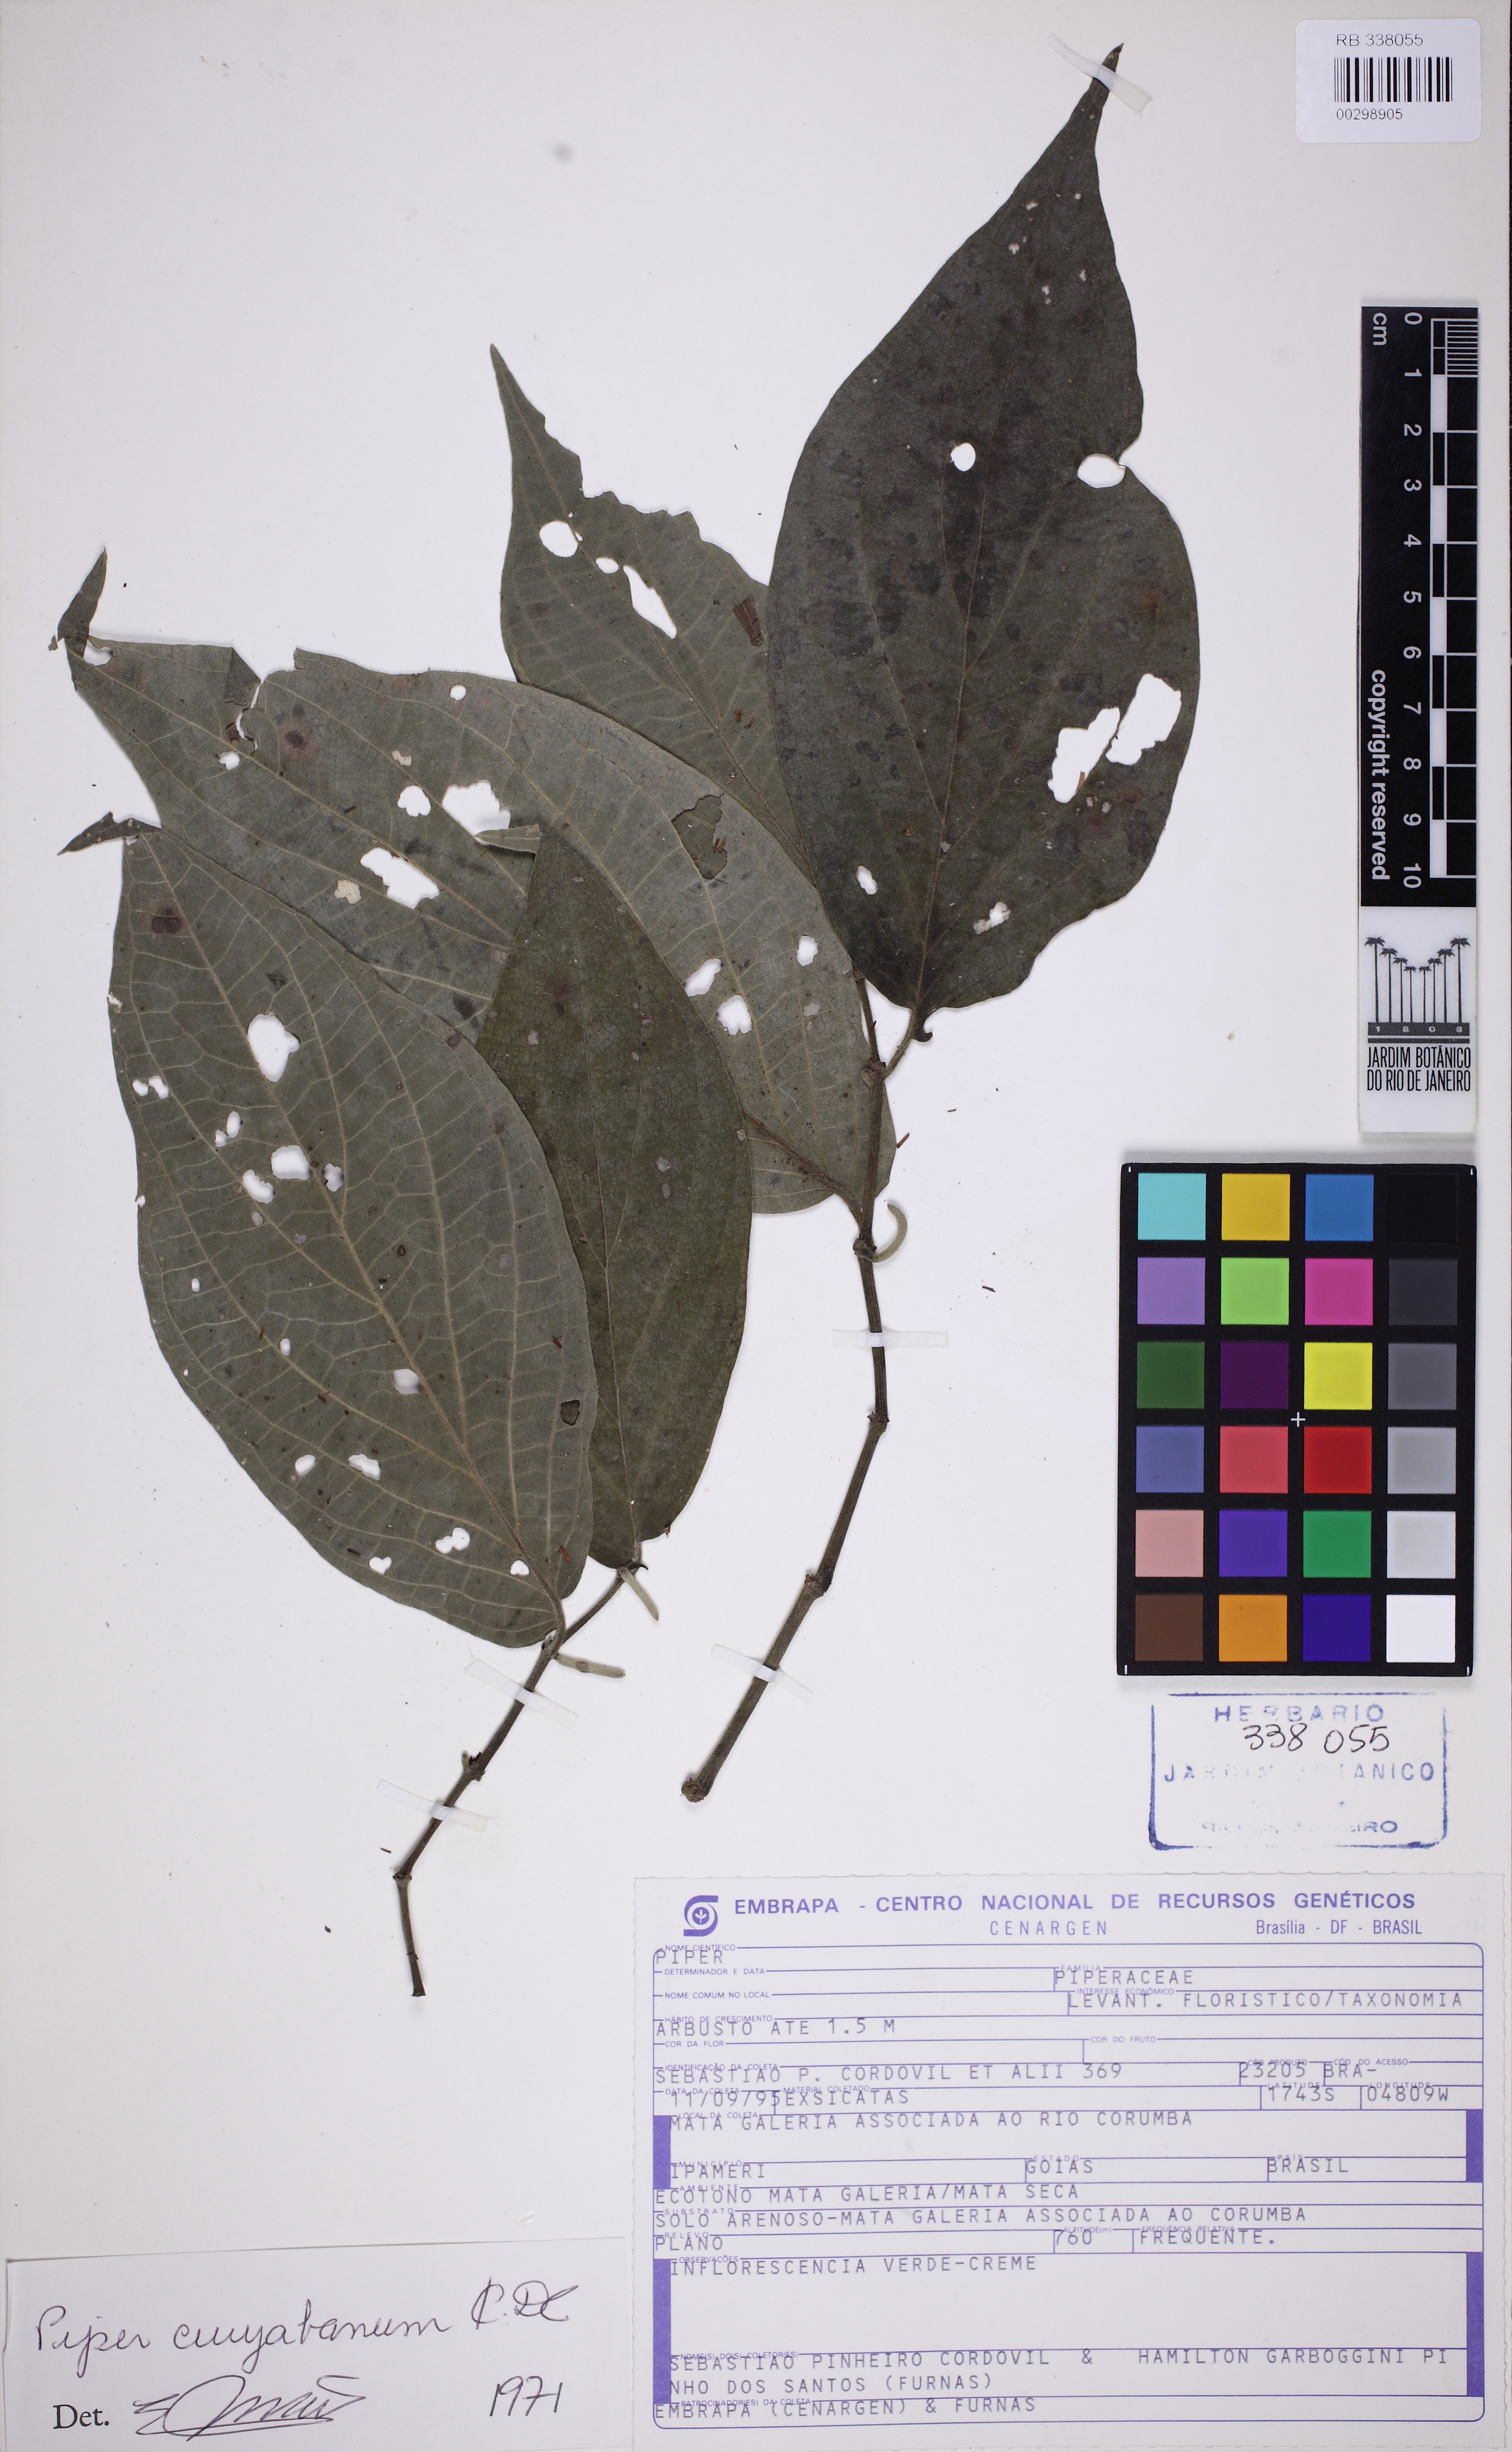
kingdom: Plantae
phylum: Tracheophyta
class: Magnoliopsida
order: Piperales
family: Piperaceae
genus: Piper
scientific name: Piper cuyabanum
